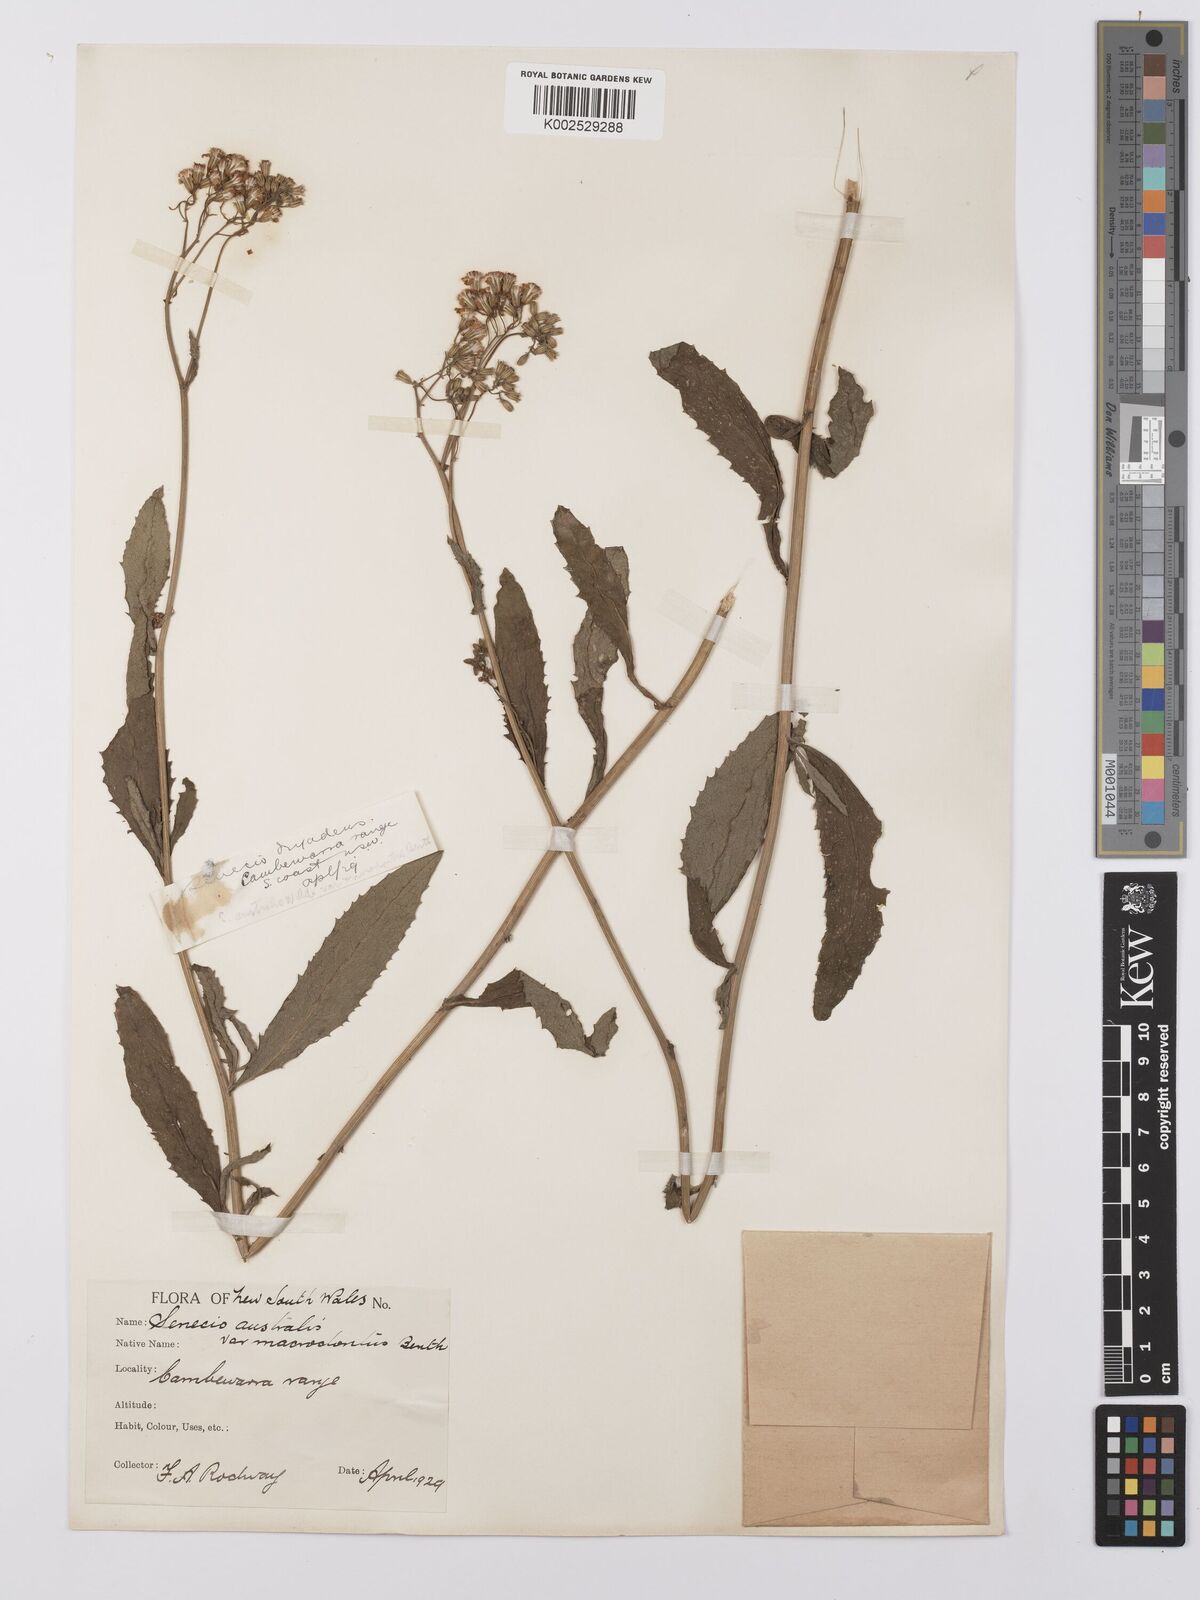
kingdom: Plantae
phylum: Tracheophyta
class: Magnoliopsida
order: Asterales
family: Asteraceae
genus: Senecio
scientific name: Senecio
